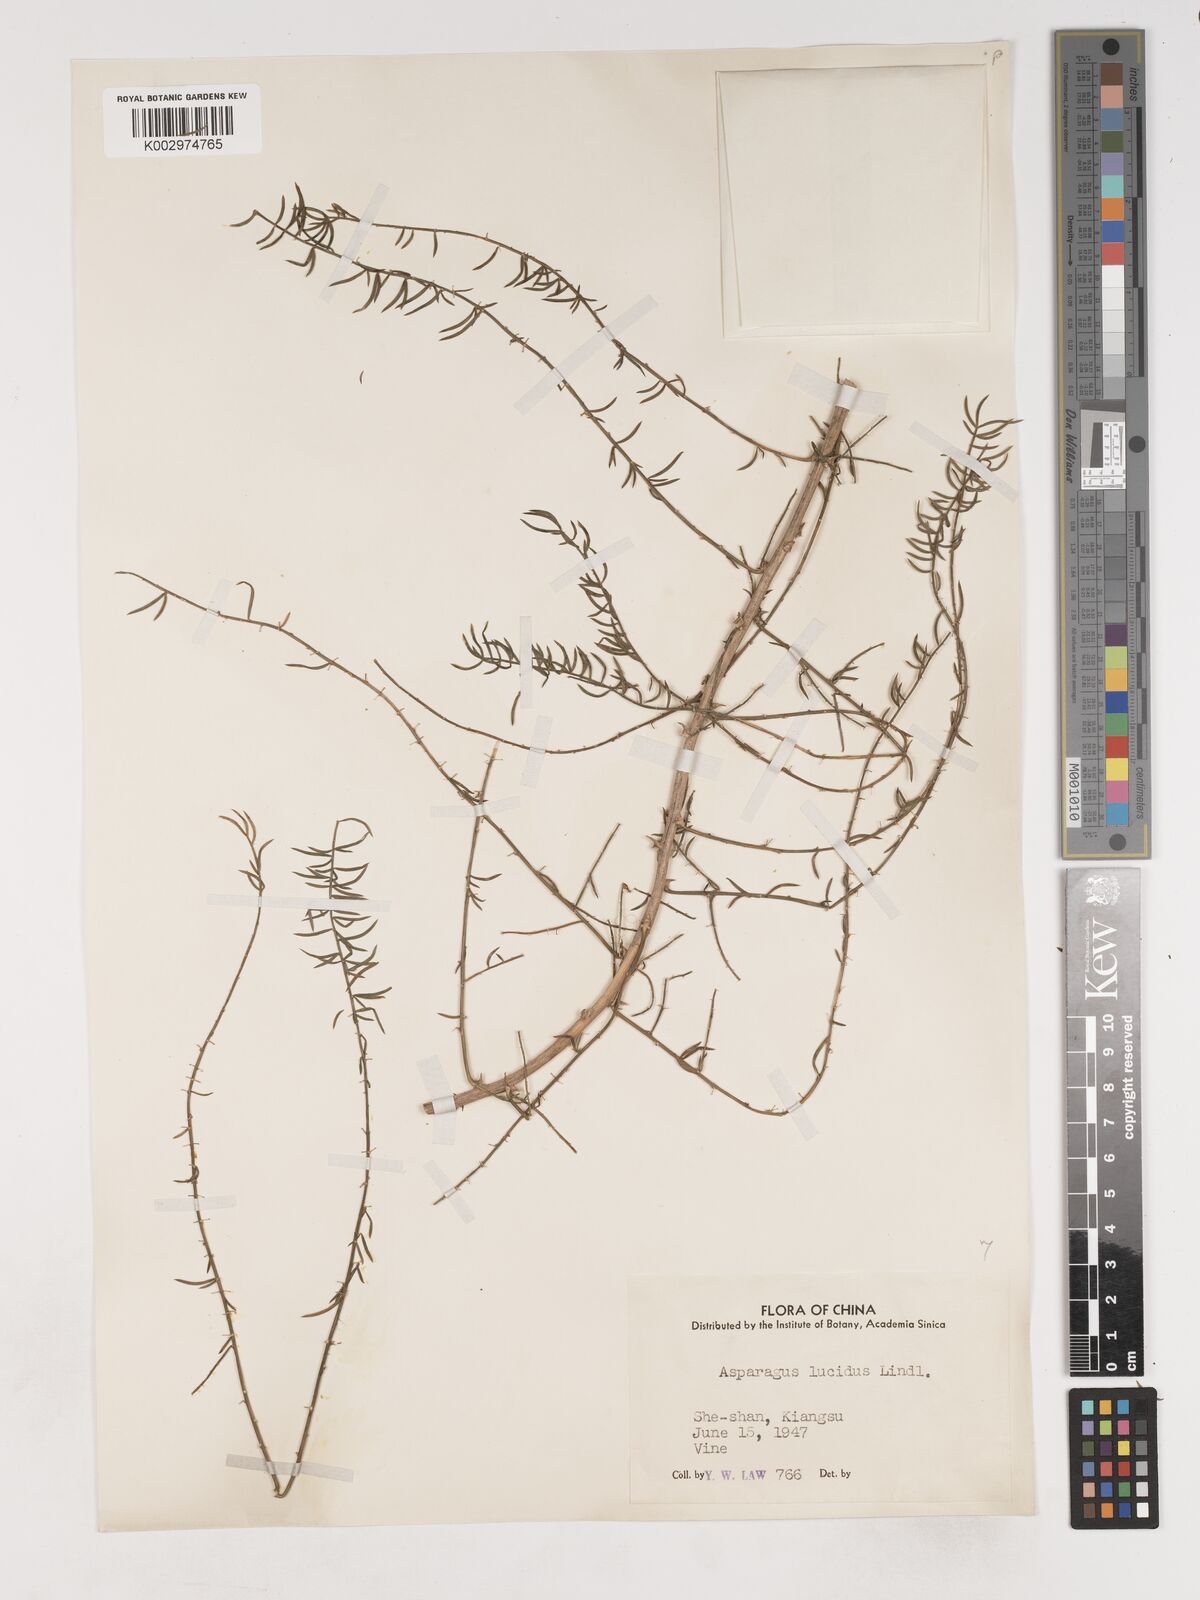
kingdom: Plantae
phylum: Tracheophyta
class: Liliopsida
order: Asparagales
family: Asparagaceae
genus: Asparagus
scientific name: Asparagus cochinchinensis
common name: Chinese asparagus
